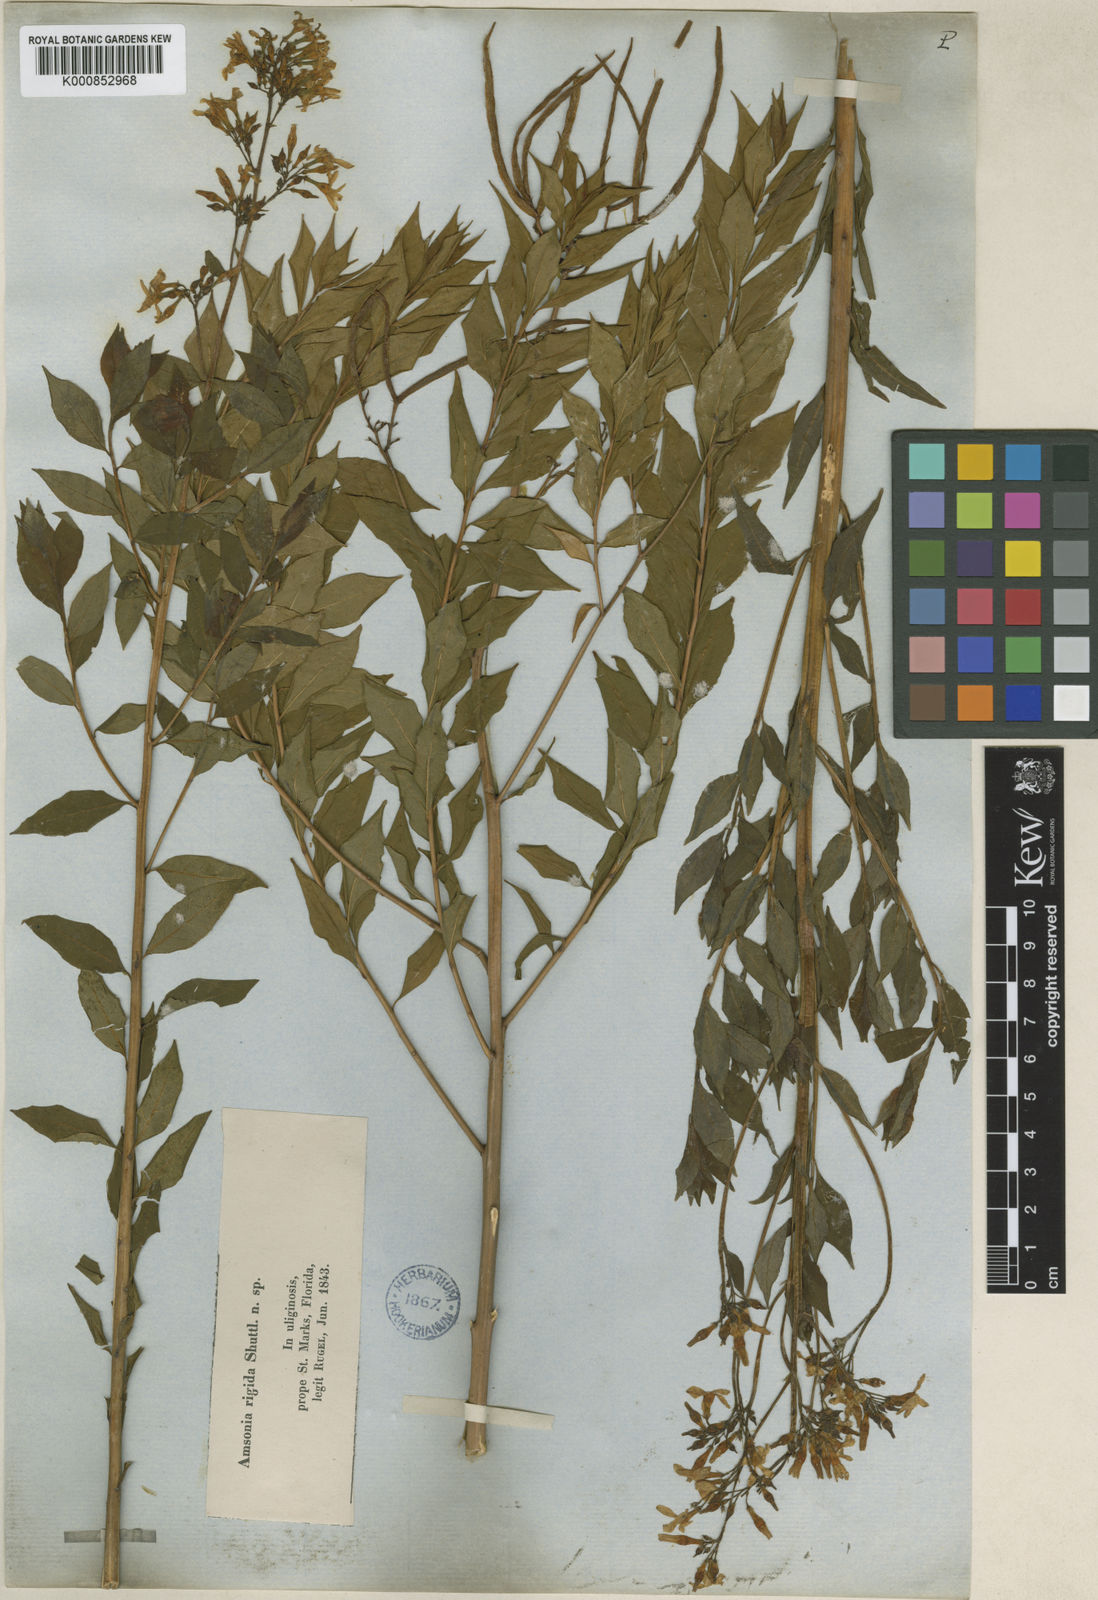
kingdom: Plantae
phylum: Tracheophyta
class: Magnoliopsida
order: Gentianales
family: Apocynaceae
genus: Amsonia
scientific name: Amsonia rigida
